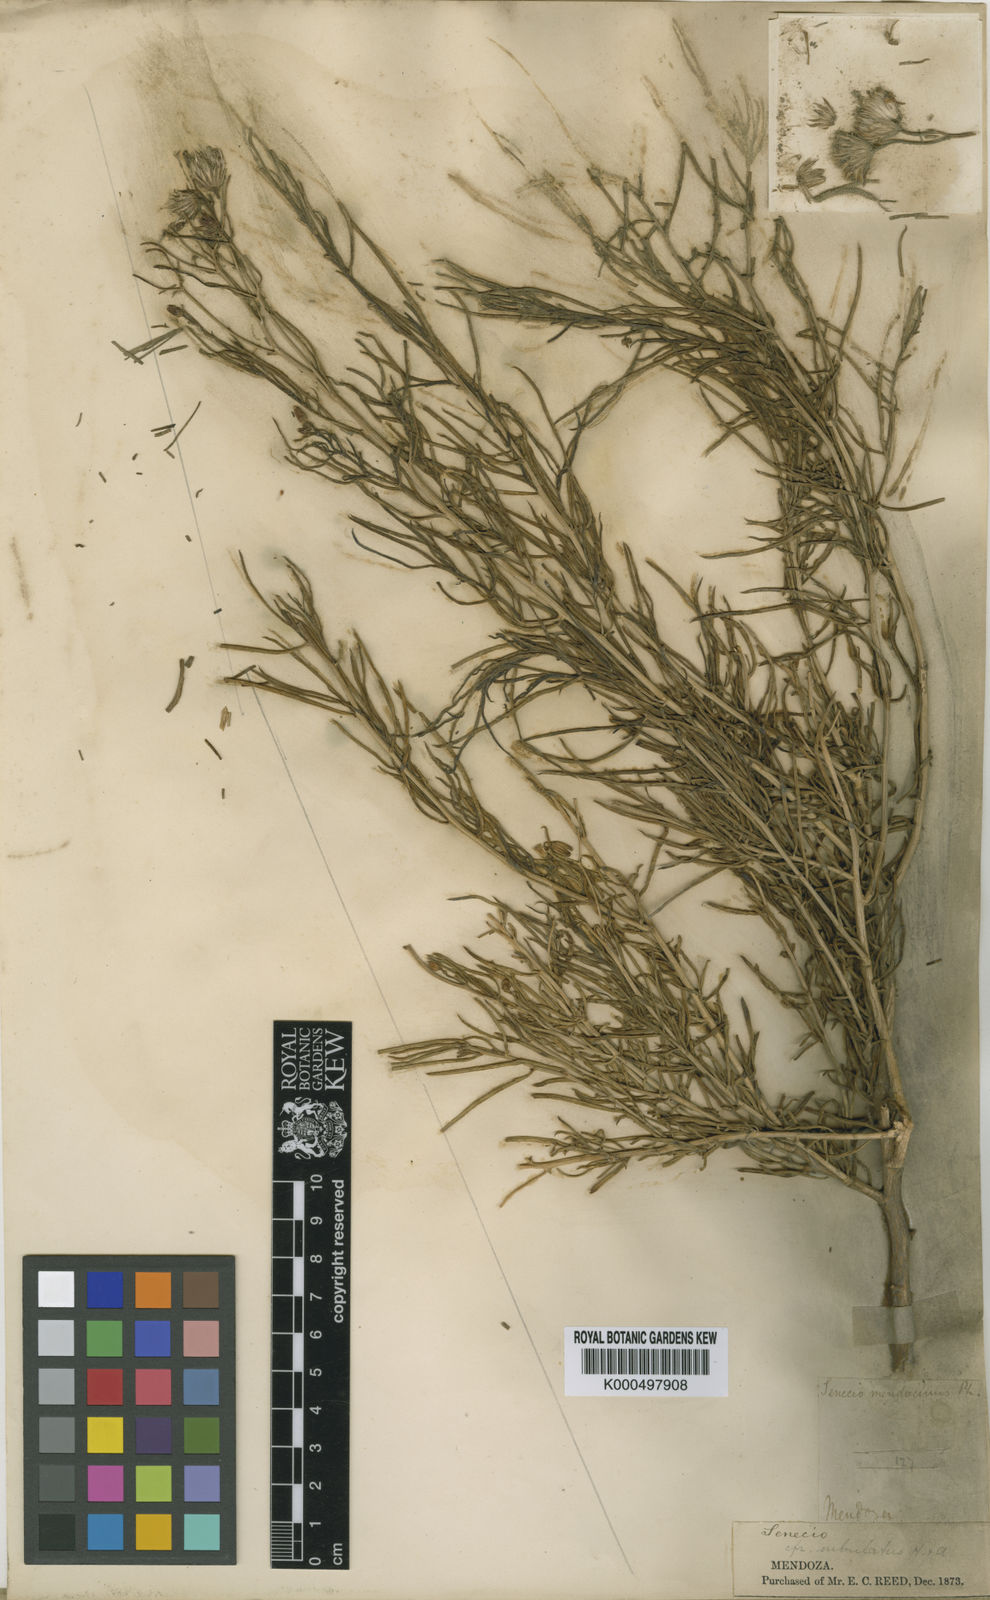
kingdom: Plantae
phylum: Tracheophyta
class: Magnoliopsida
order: Asterales
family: Asteraceae
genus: Senecio
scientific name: Senecio subulatus
